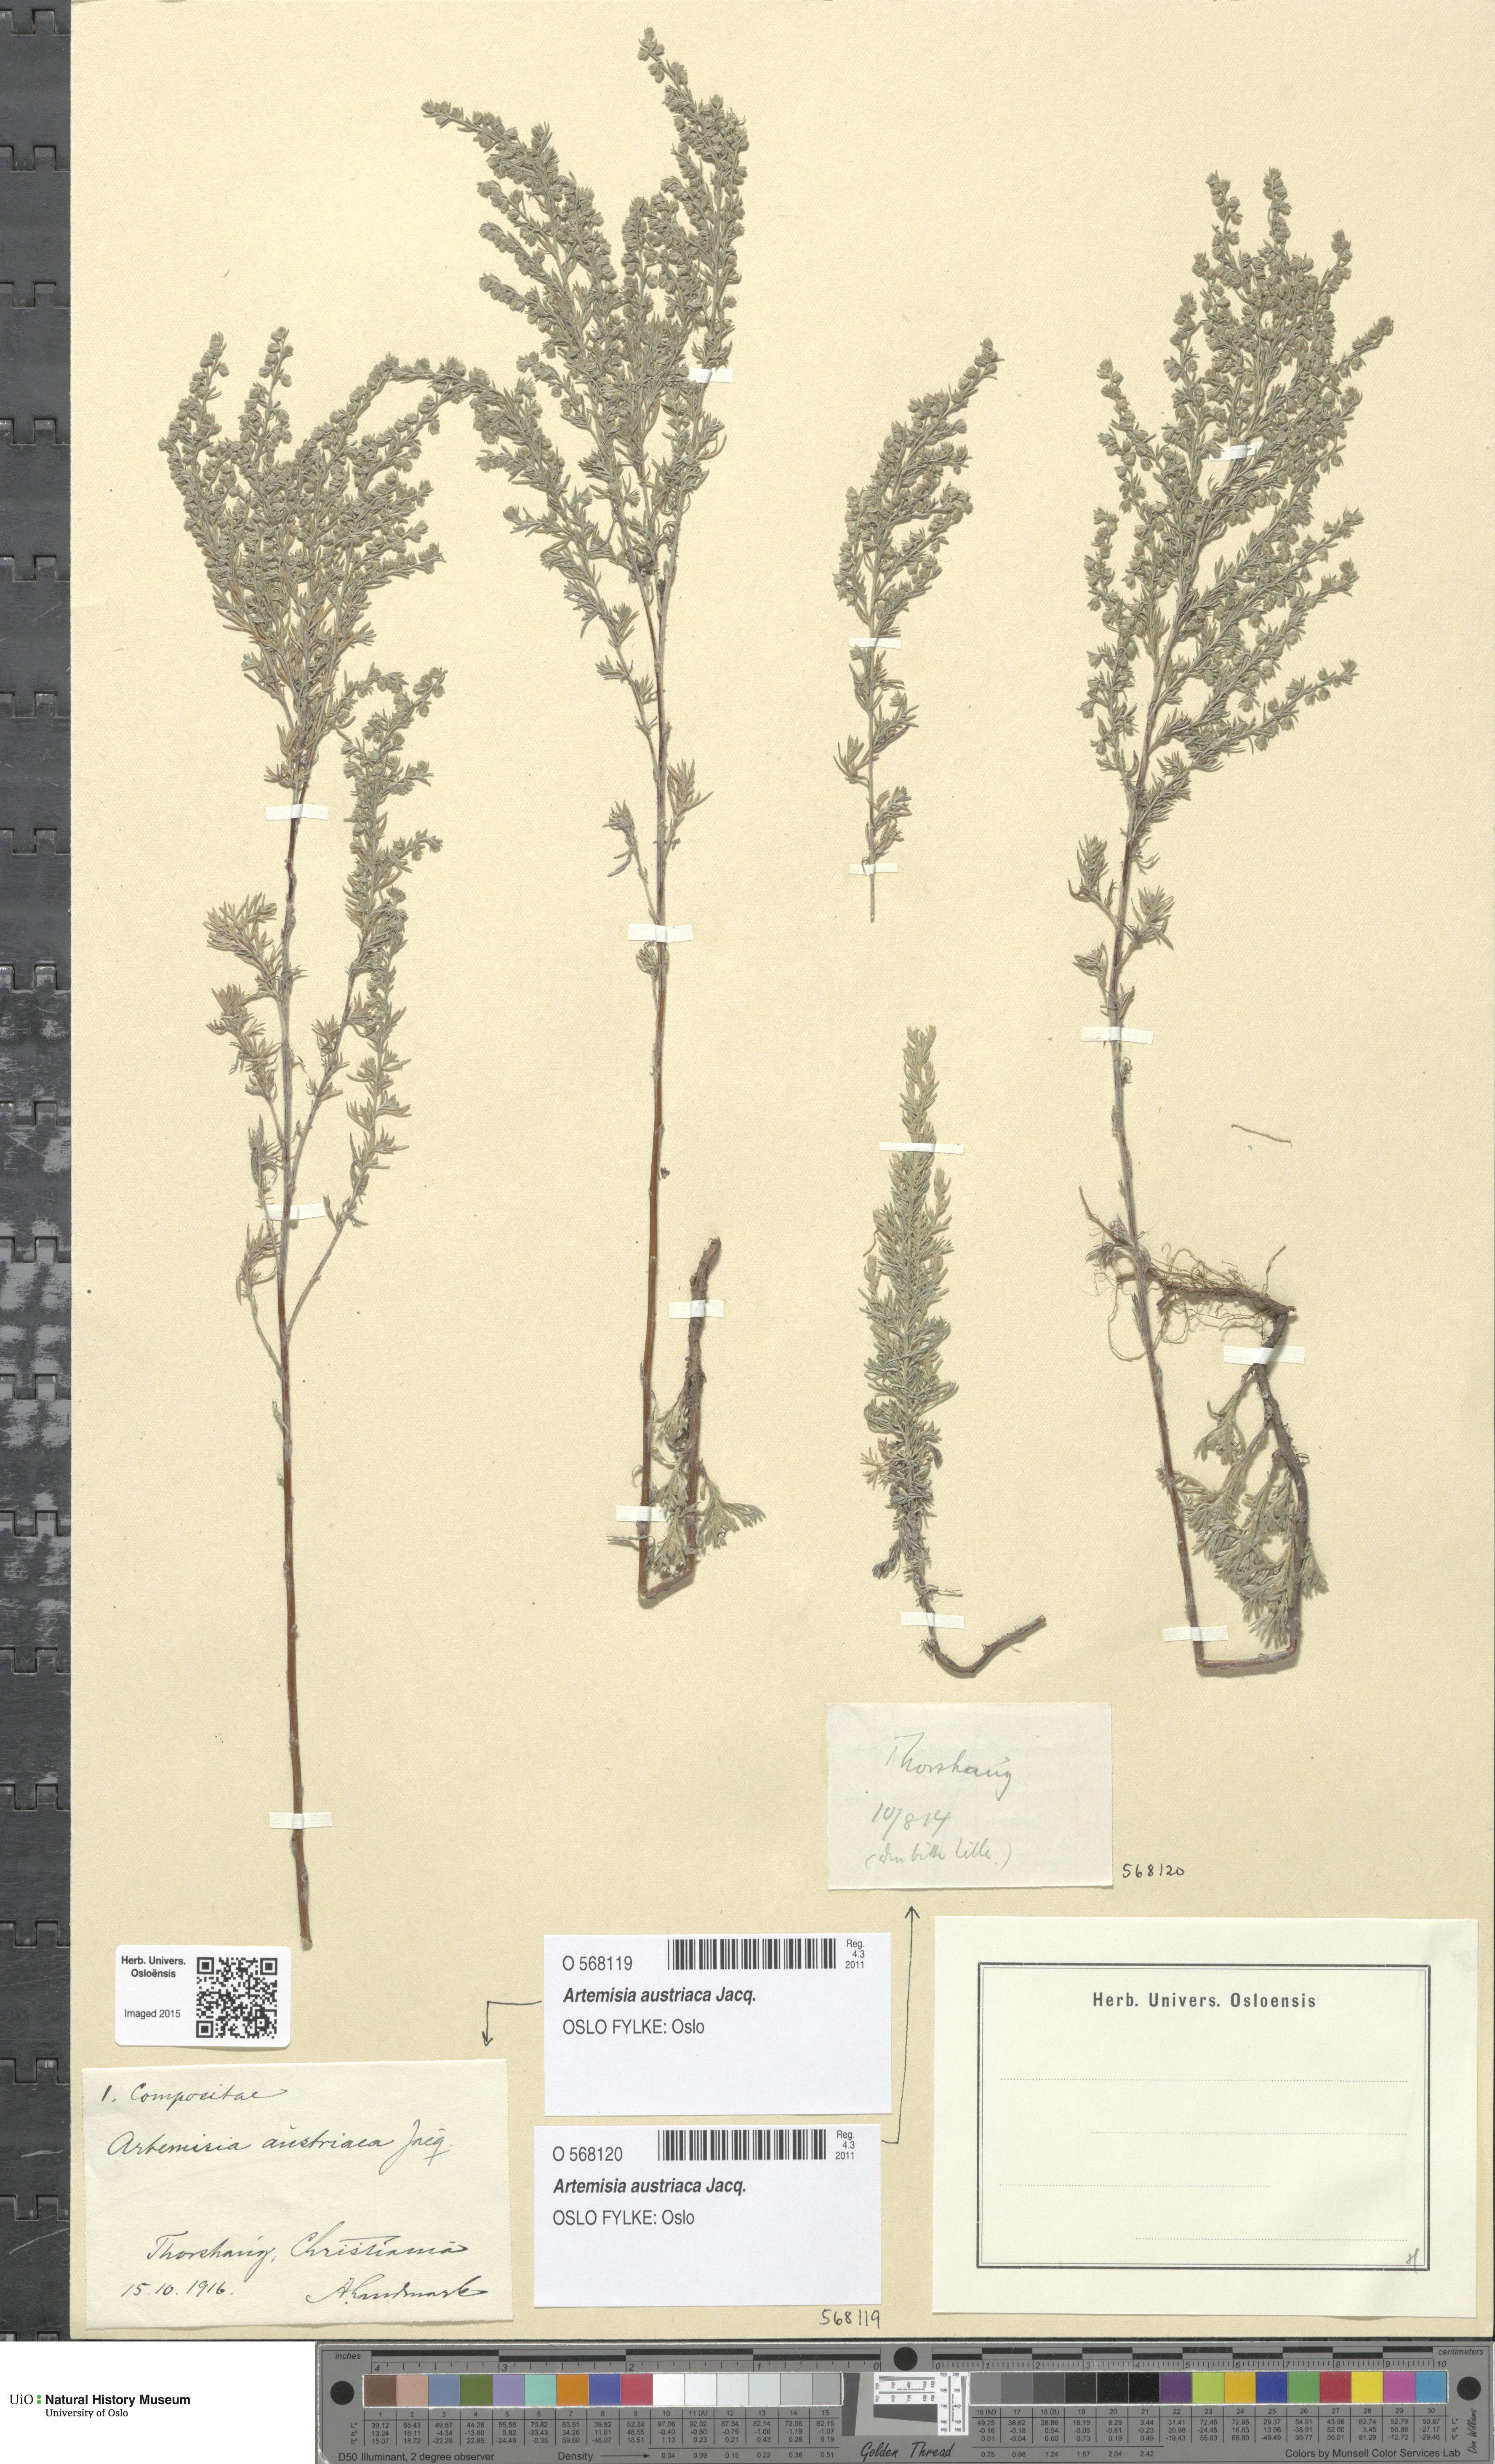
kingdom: Plantae
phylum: Tracheophyta
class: Magnoliopsida
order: Asterales
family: Asteraceae
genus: Artemisia
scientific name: Artemisia austriaca
